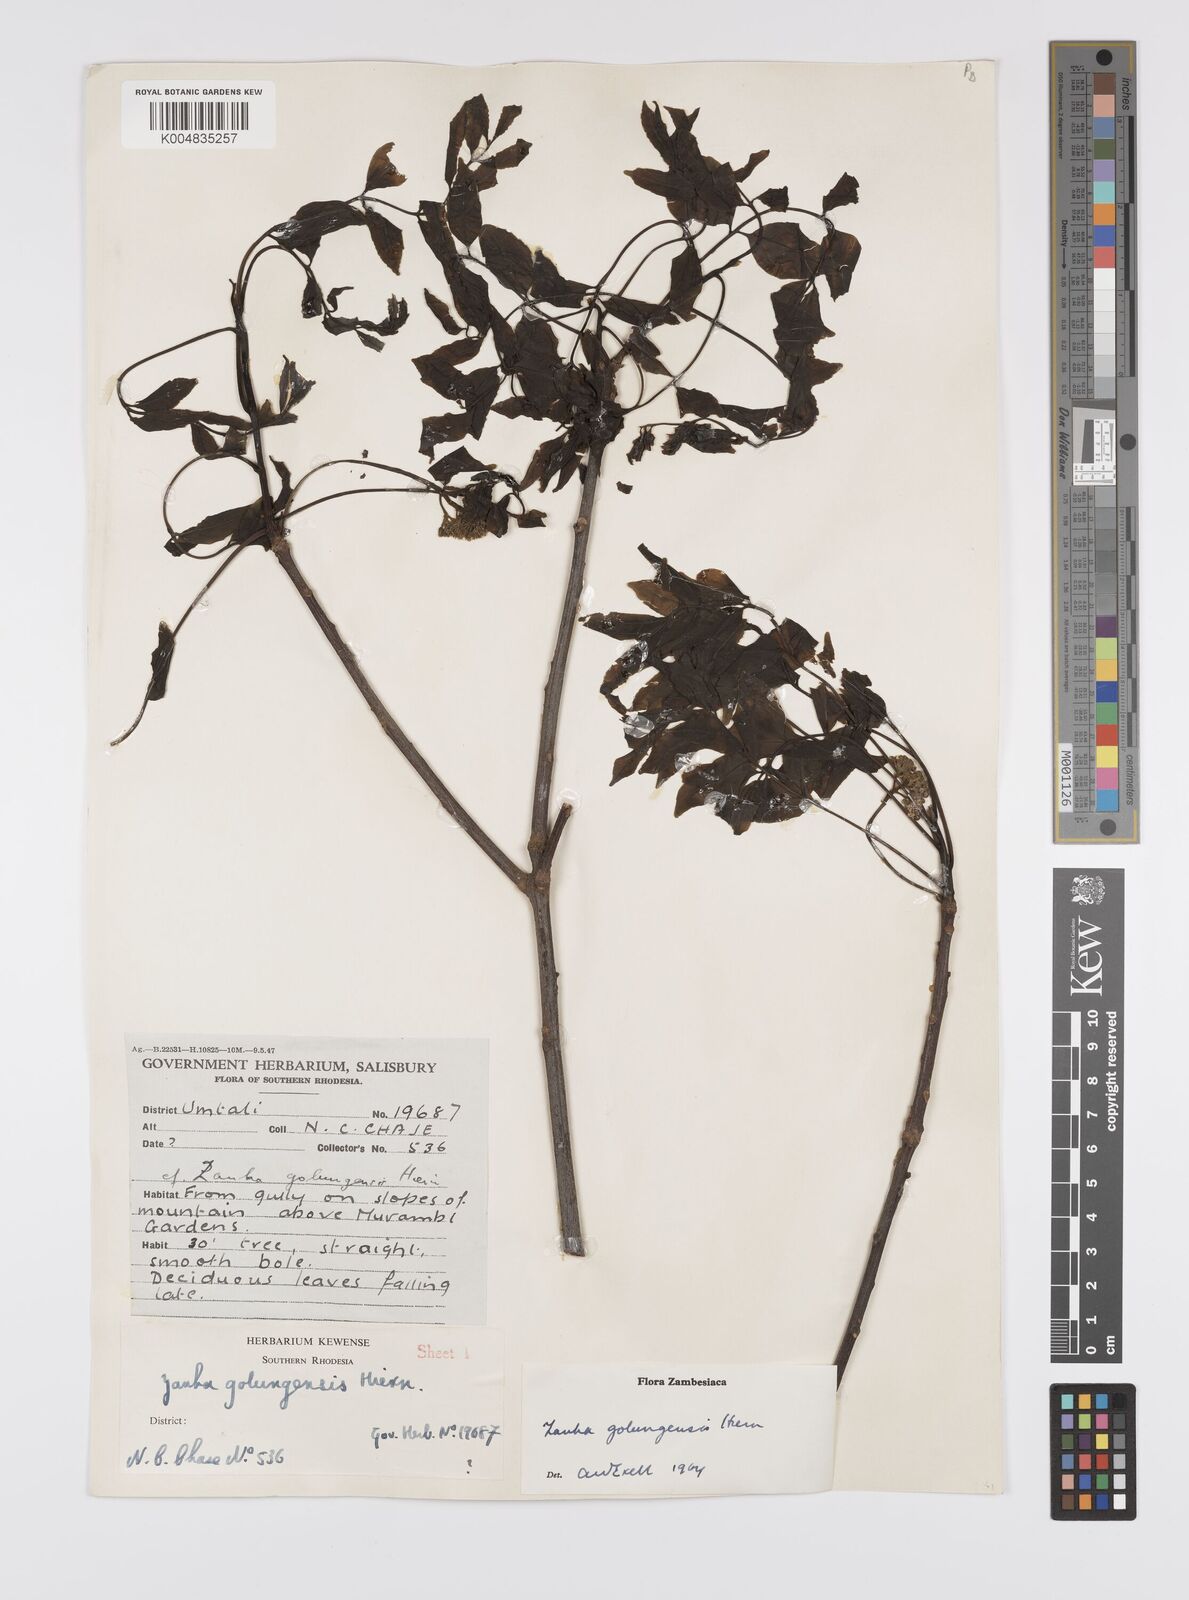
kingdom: Plantae
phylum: Tracheophyta
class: Magnoliopsida
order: Sapindales
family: Sapindaceae
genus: Zanha
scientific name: Zanha golungensis
